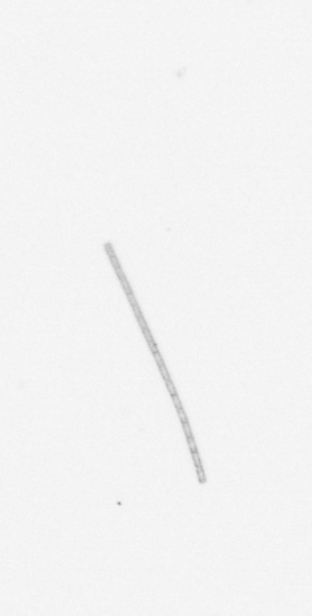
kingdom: Chromista
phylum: Ochrophyta
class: Bacillariophyceae
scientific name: Bacillariophyceae
